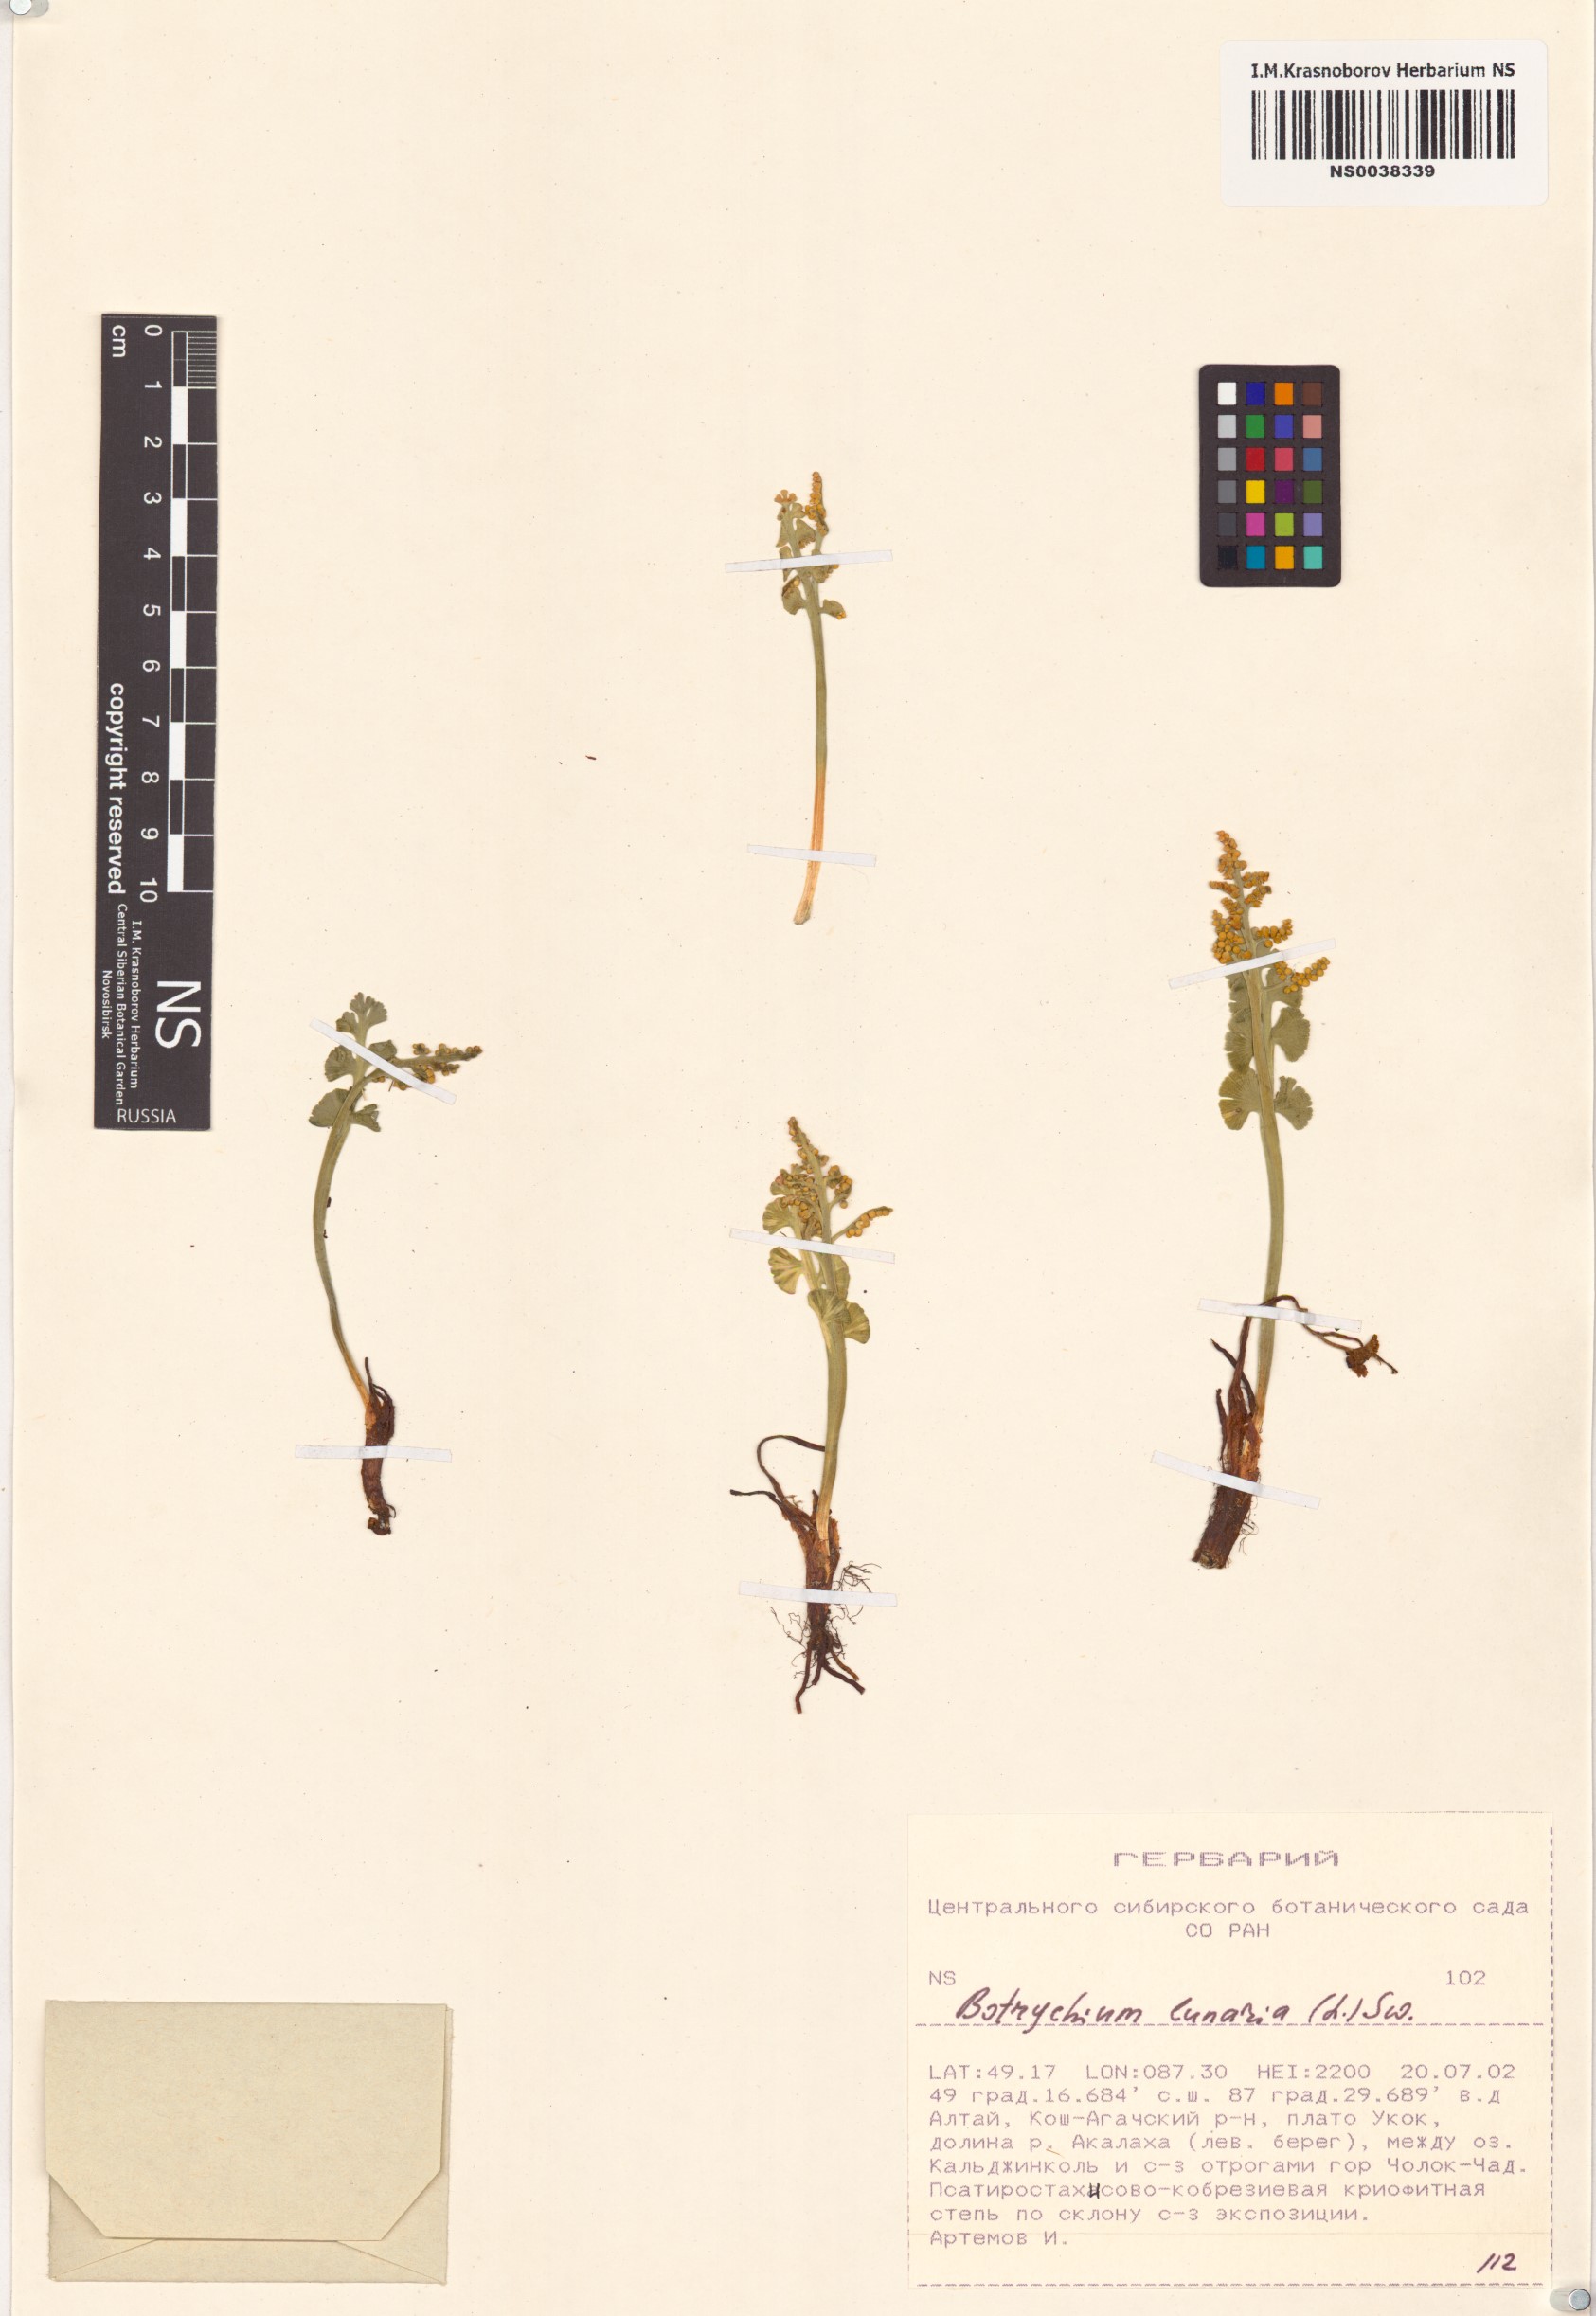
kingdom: Plantae
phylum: Tracheophyta
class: Polypodiopsida
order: Ophioglossales
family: Ophioglossaceae
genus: Botrychium
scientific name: Botrychium lunaria
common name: Moonwort
